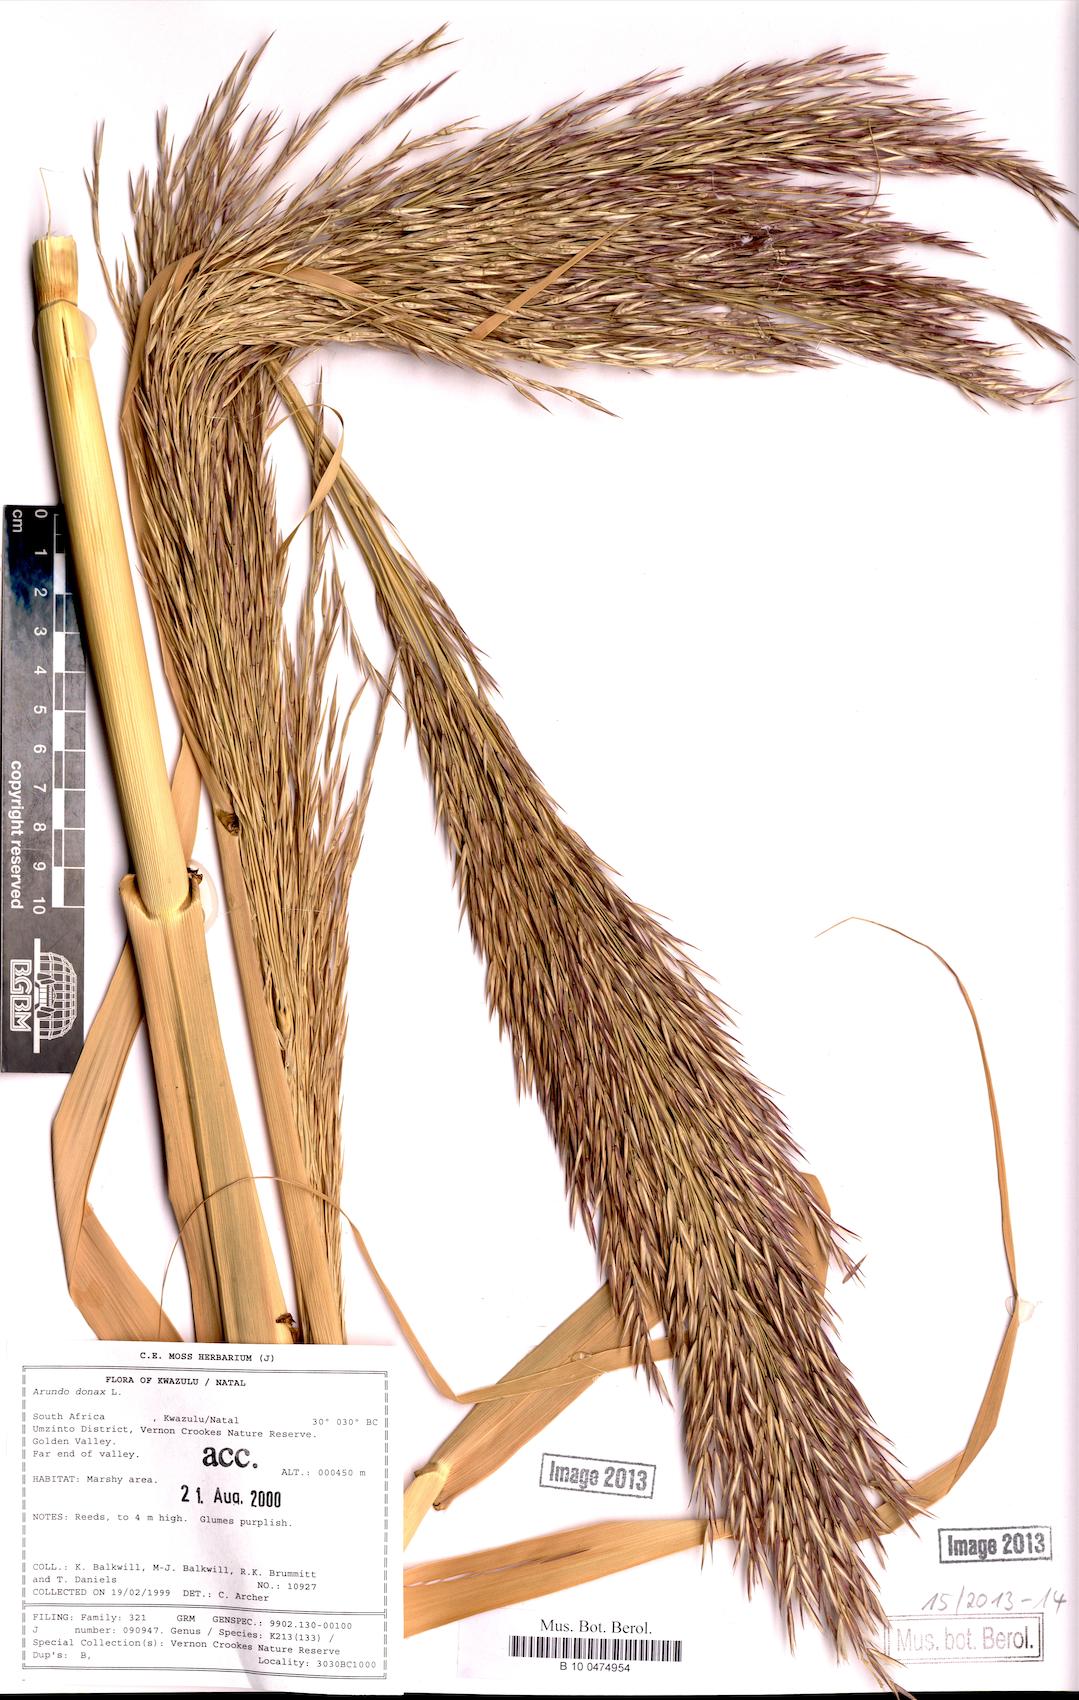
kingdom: Plantae
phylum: Tracheophyta
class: Liliopsida
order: Poales
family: Poaceae
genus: Arundo
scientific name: Arundo donax
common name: Giant reed
